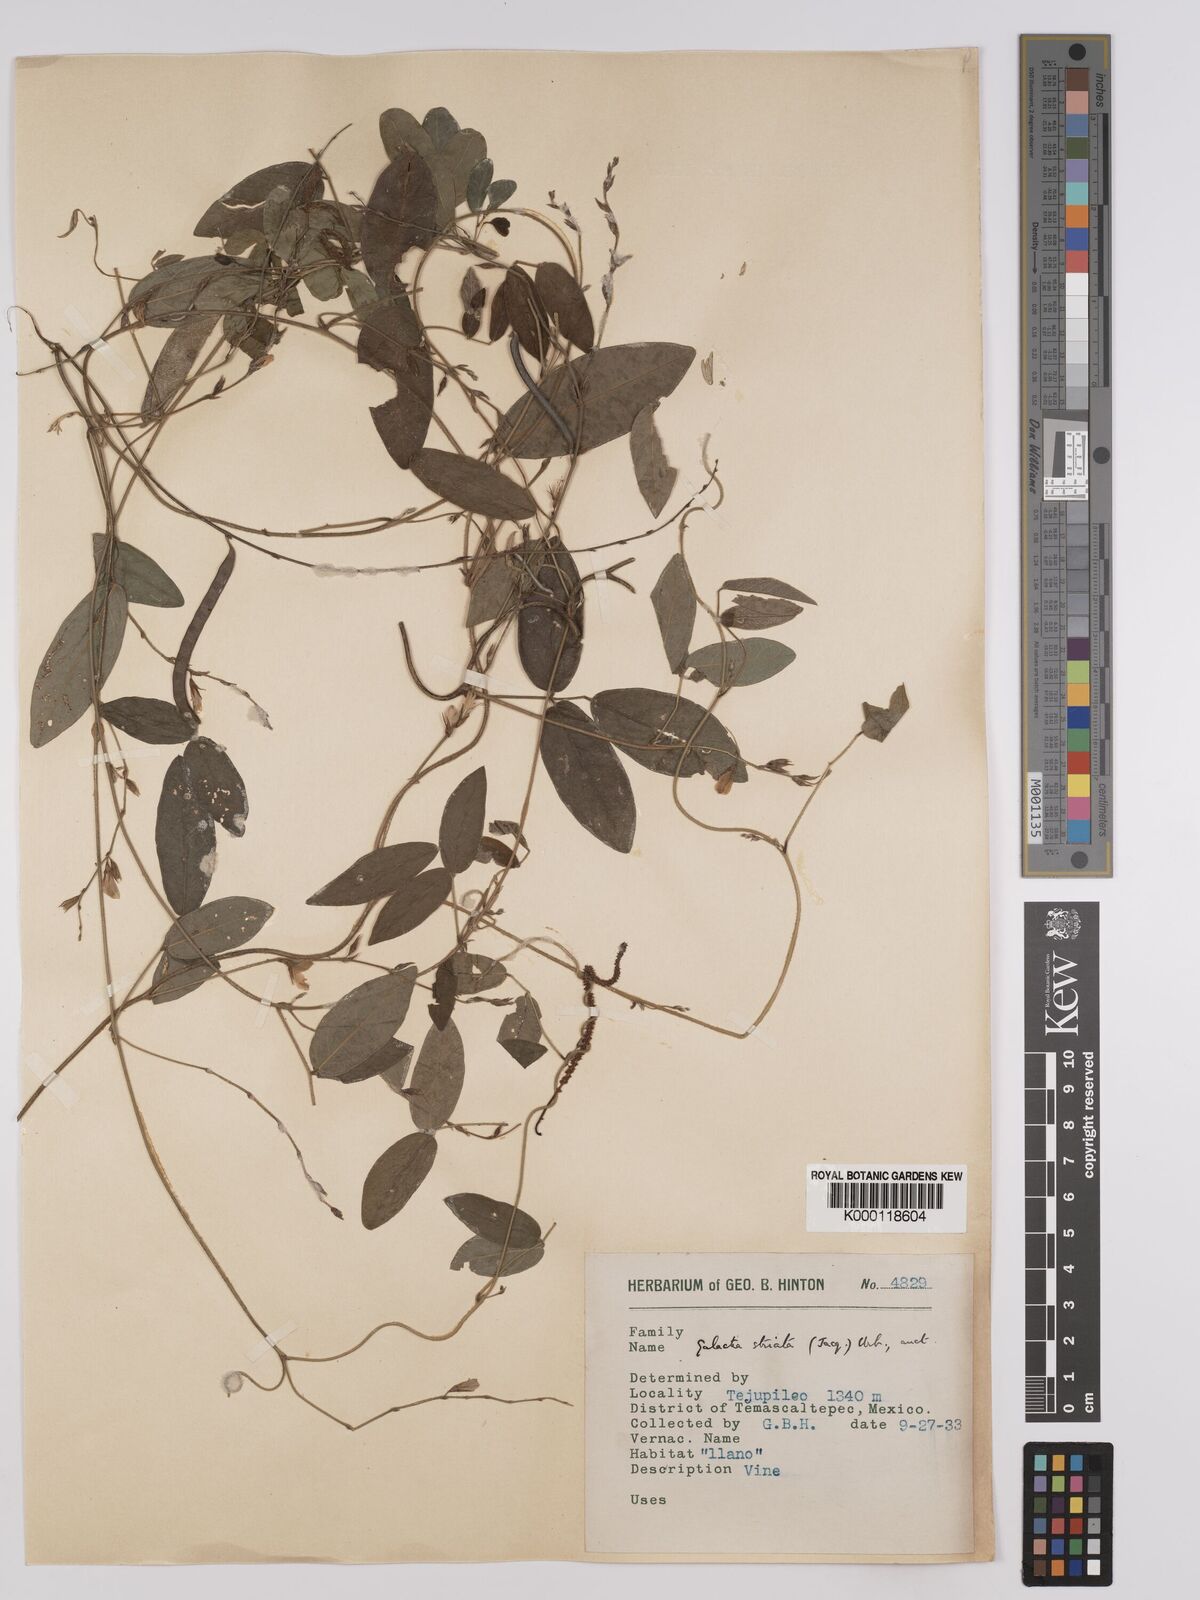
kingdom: Plantae
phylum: Tracheophyta
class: Magnoliopsida
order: Fabales
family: Fabaceae
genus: Galactia
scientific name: Galactia striata
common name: Florida hammock milkpea
